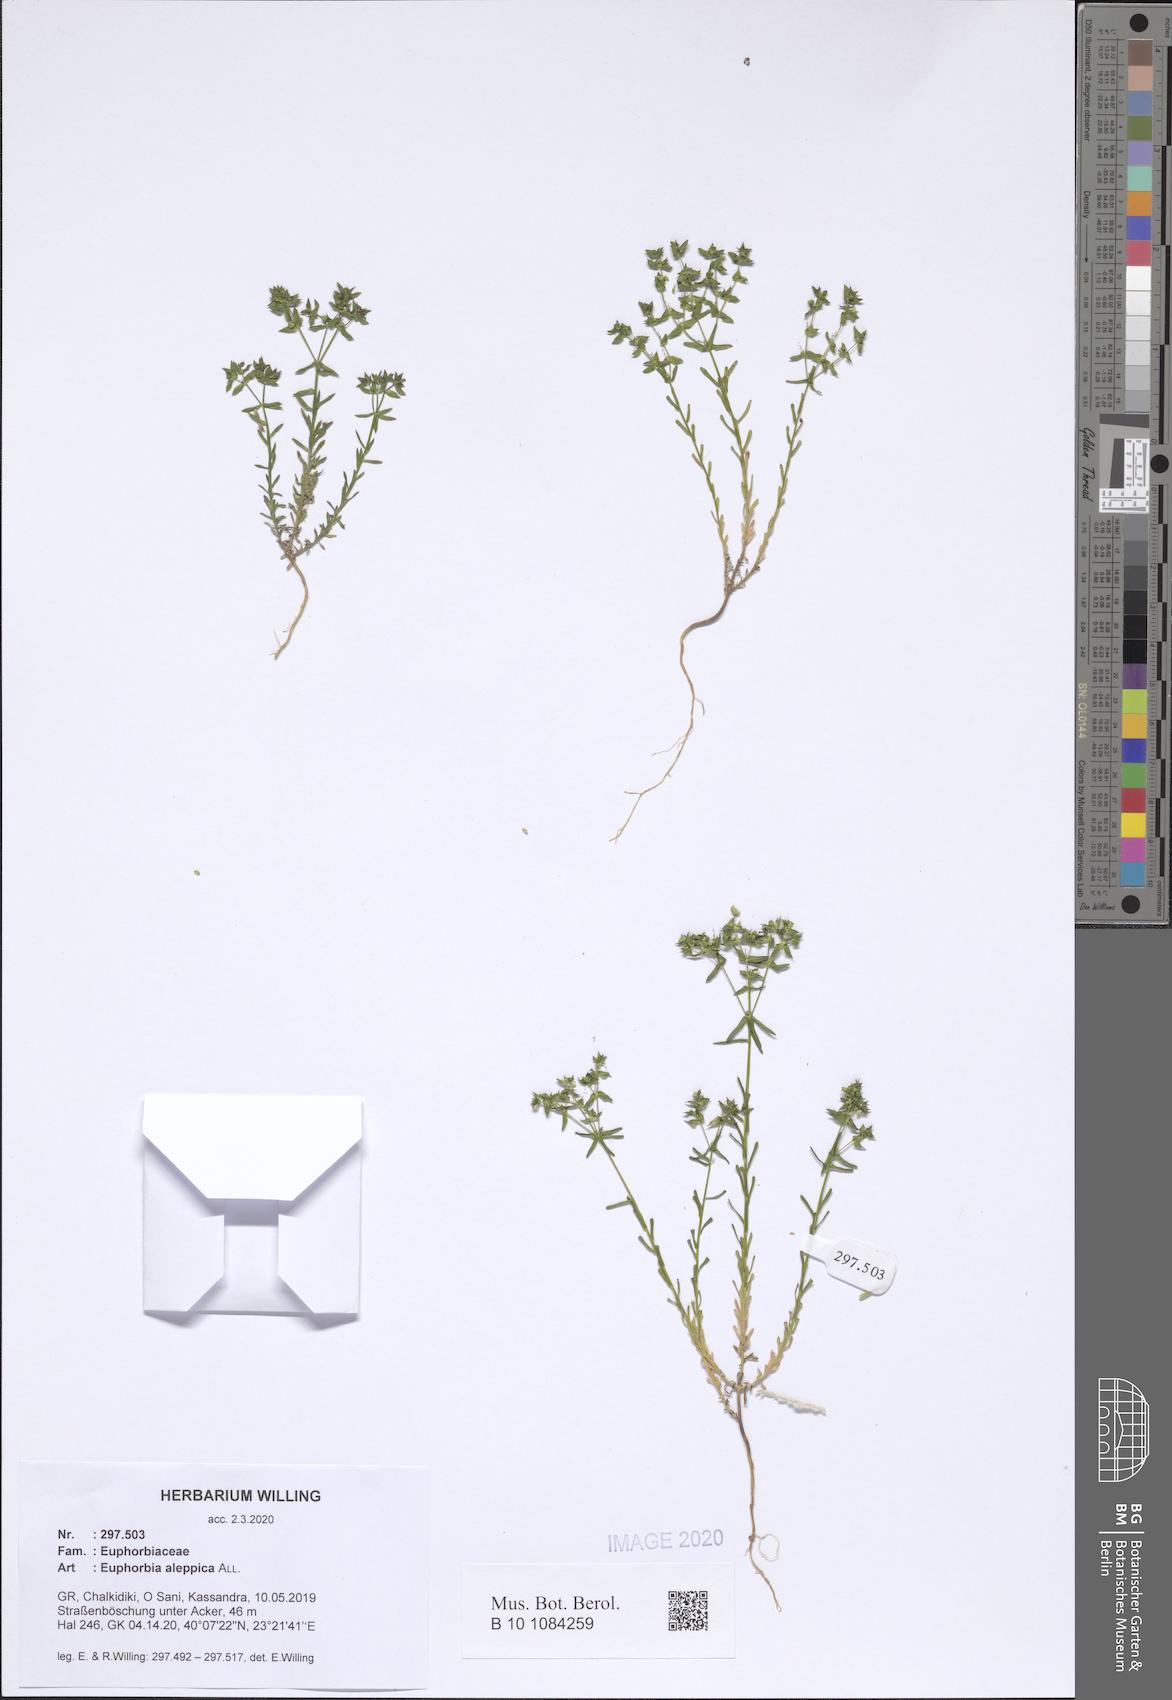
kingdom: Plantae
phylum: Tracheophyta
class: Magnoliopsida
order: Malpighiales
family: Euphorbiaceae
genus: Euphorbia
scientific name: Euphorbia aleppica
